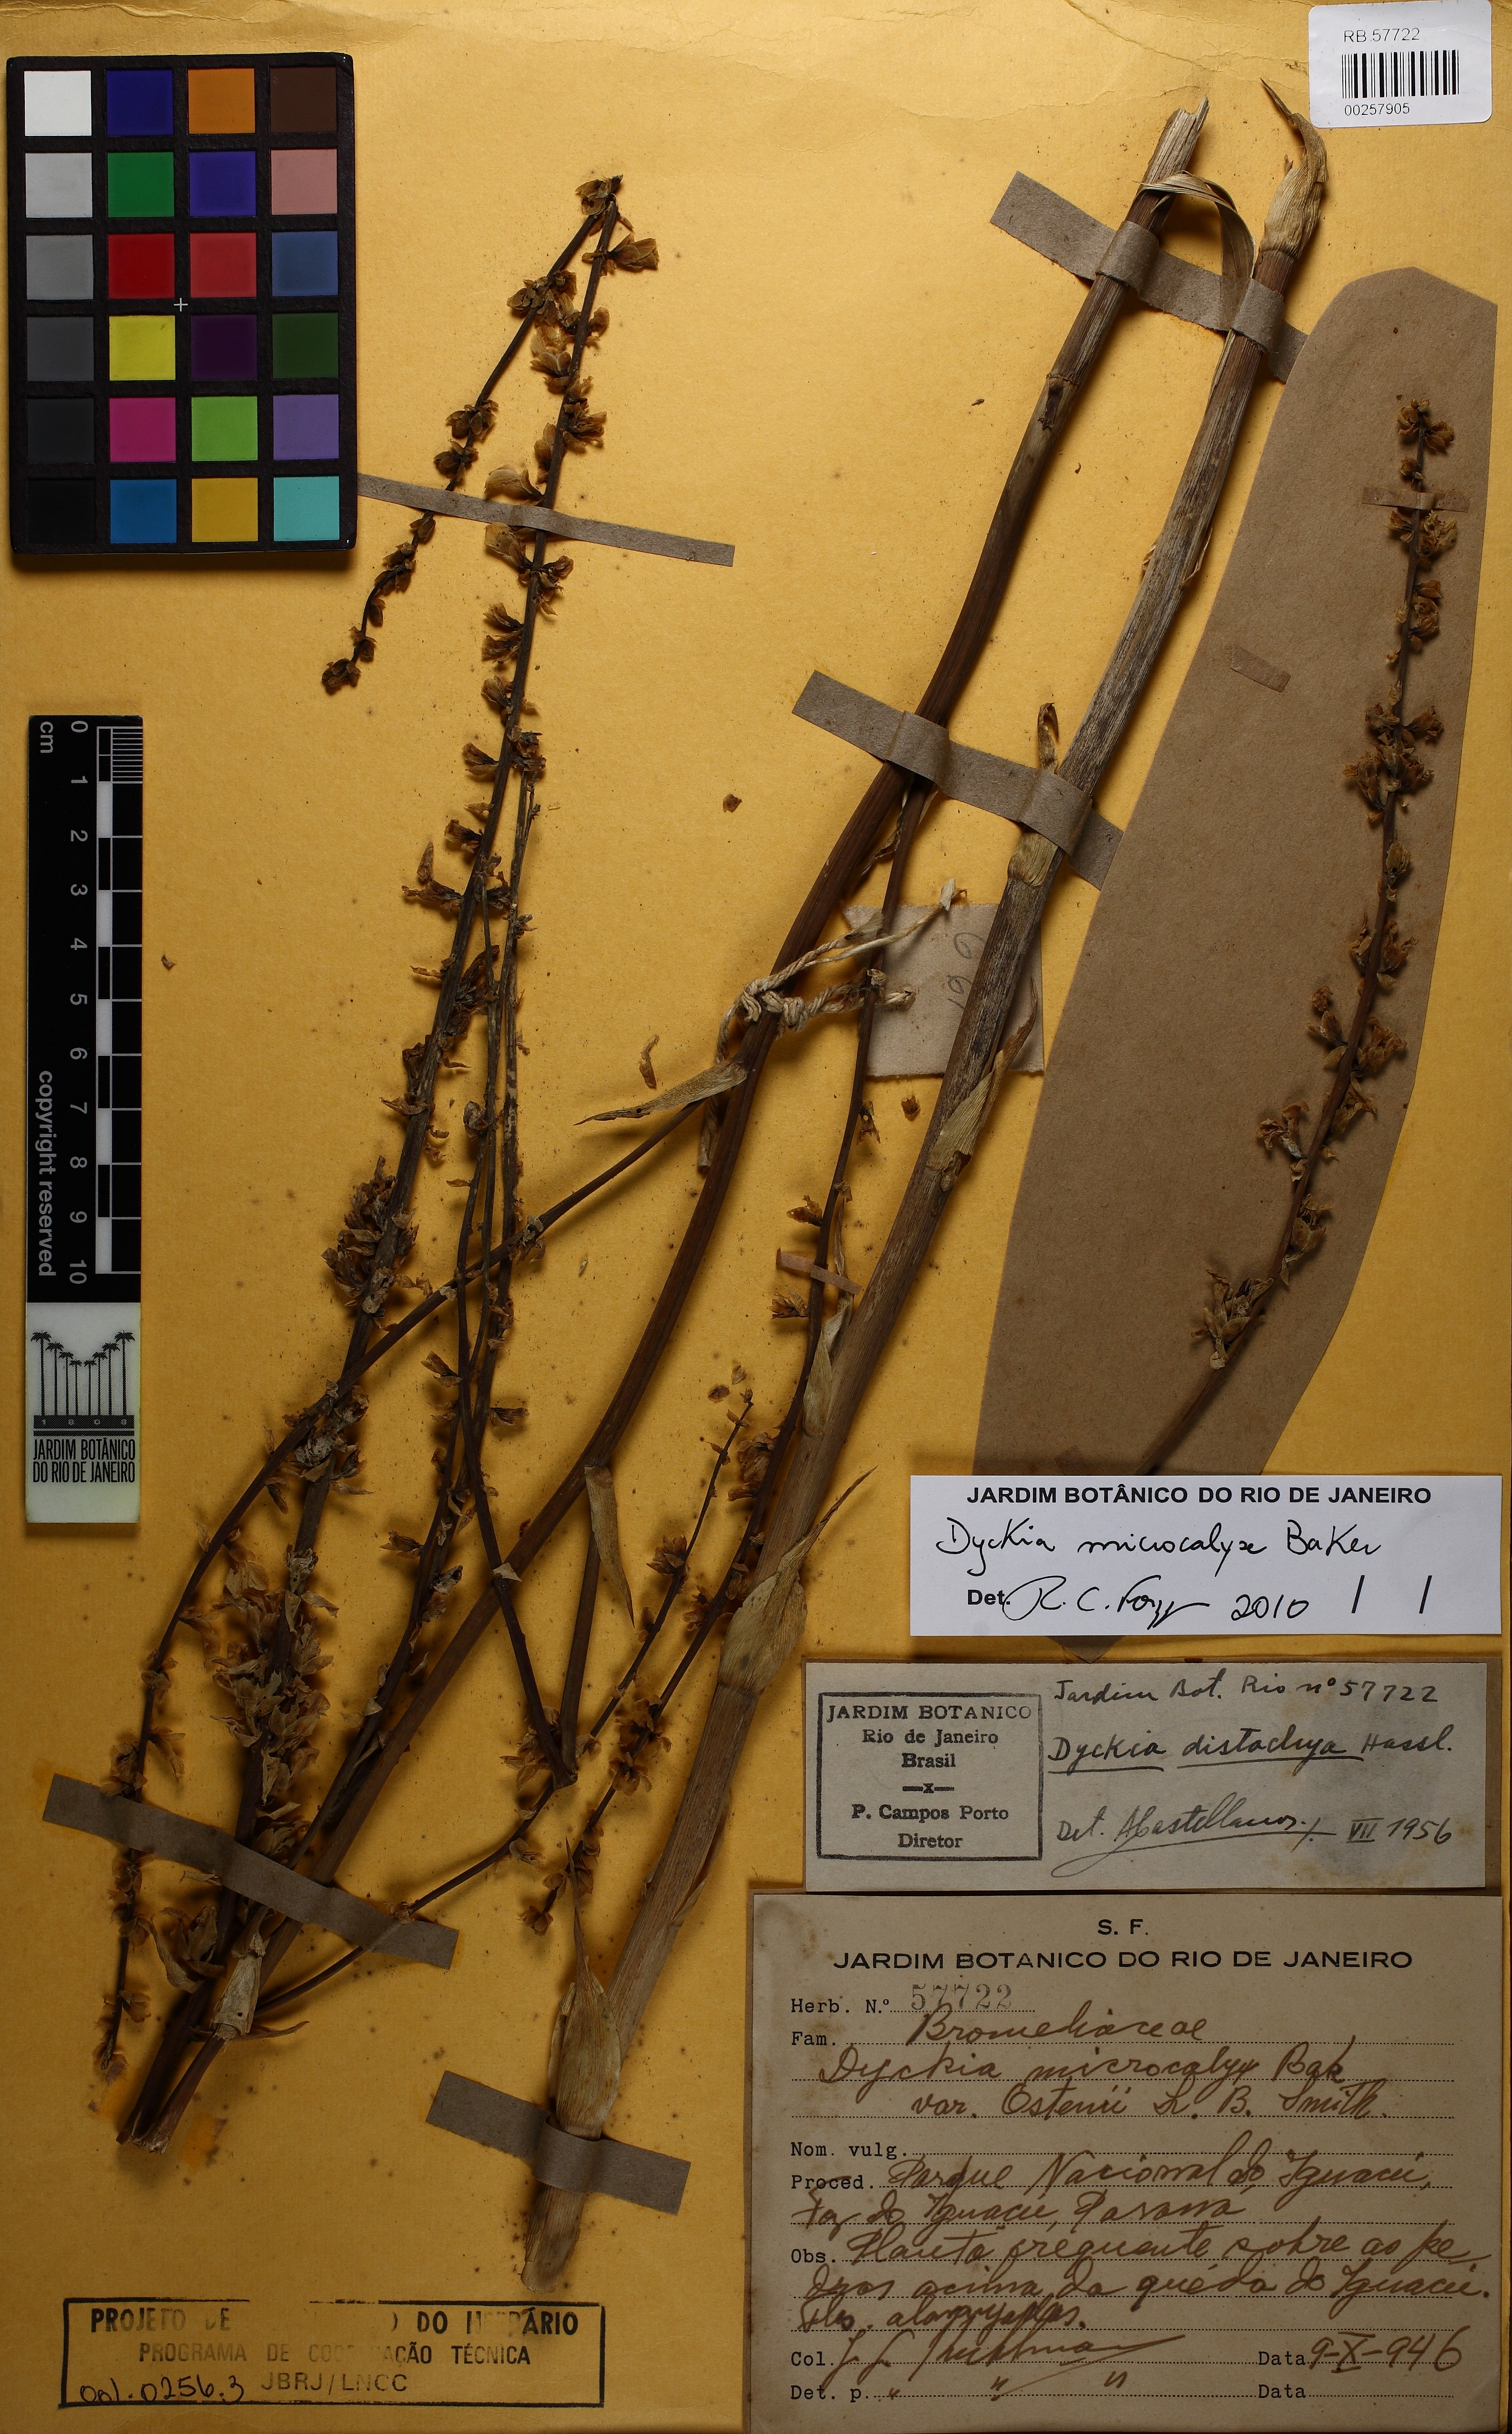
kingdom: Plantae
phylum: Tracheophyta
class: Liliopsida
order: Poales
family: Bromeliaceae
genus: Dyckia
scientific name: Dyckia microcalyx
